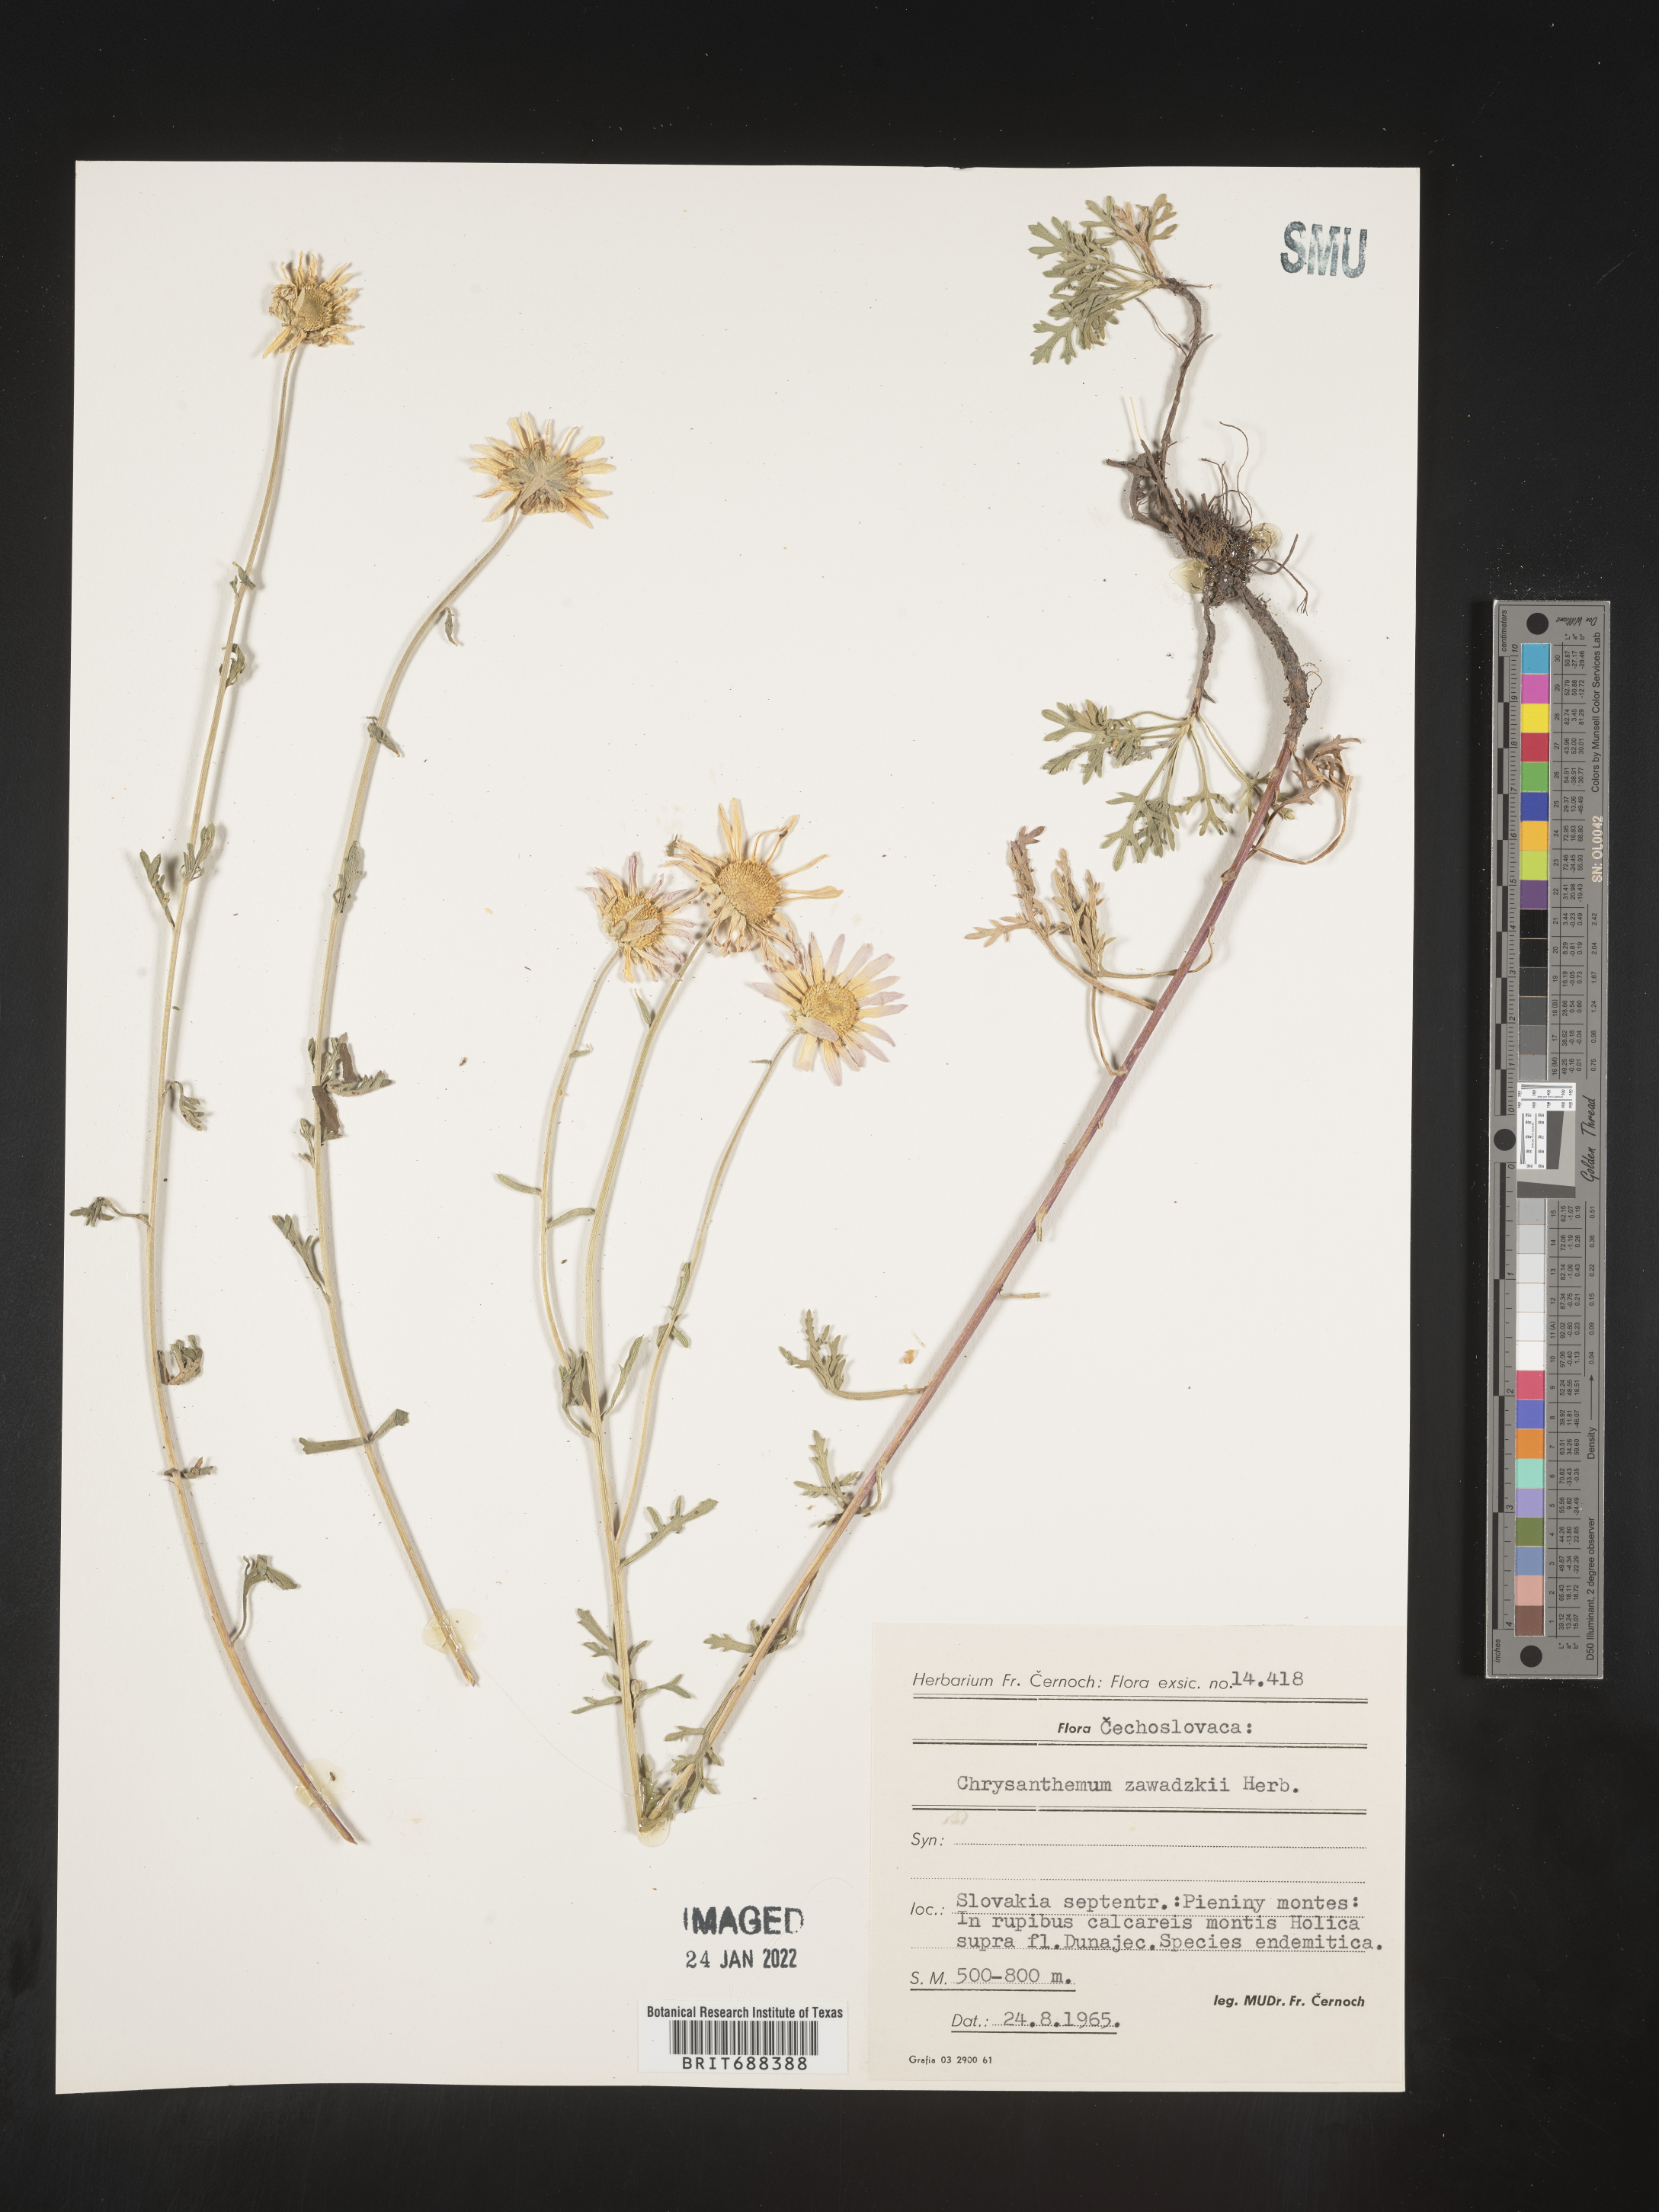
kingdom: Plantae
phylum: Tracheophyta
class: Magnoliopsida
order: Asterales
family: Asteraceae
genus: Chrysanthemum
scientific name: Chrysanthemum
